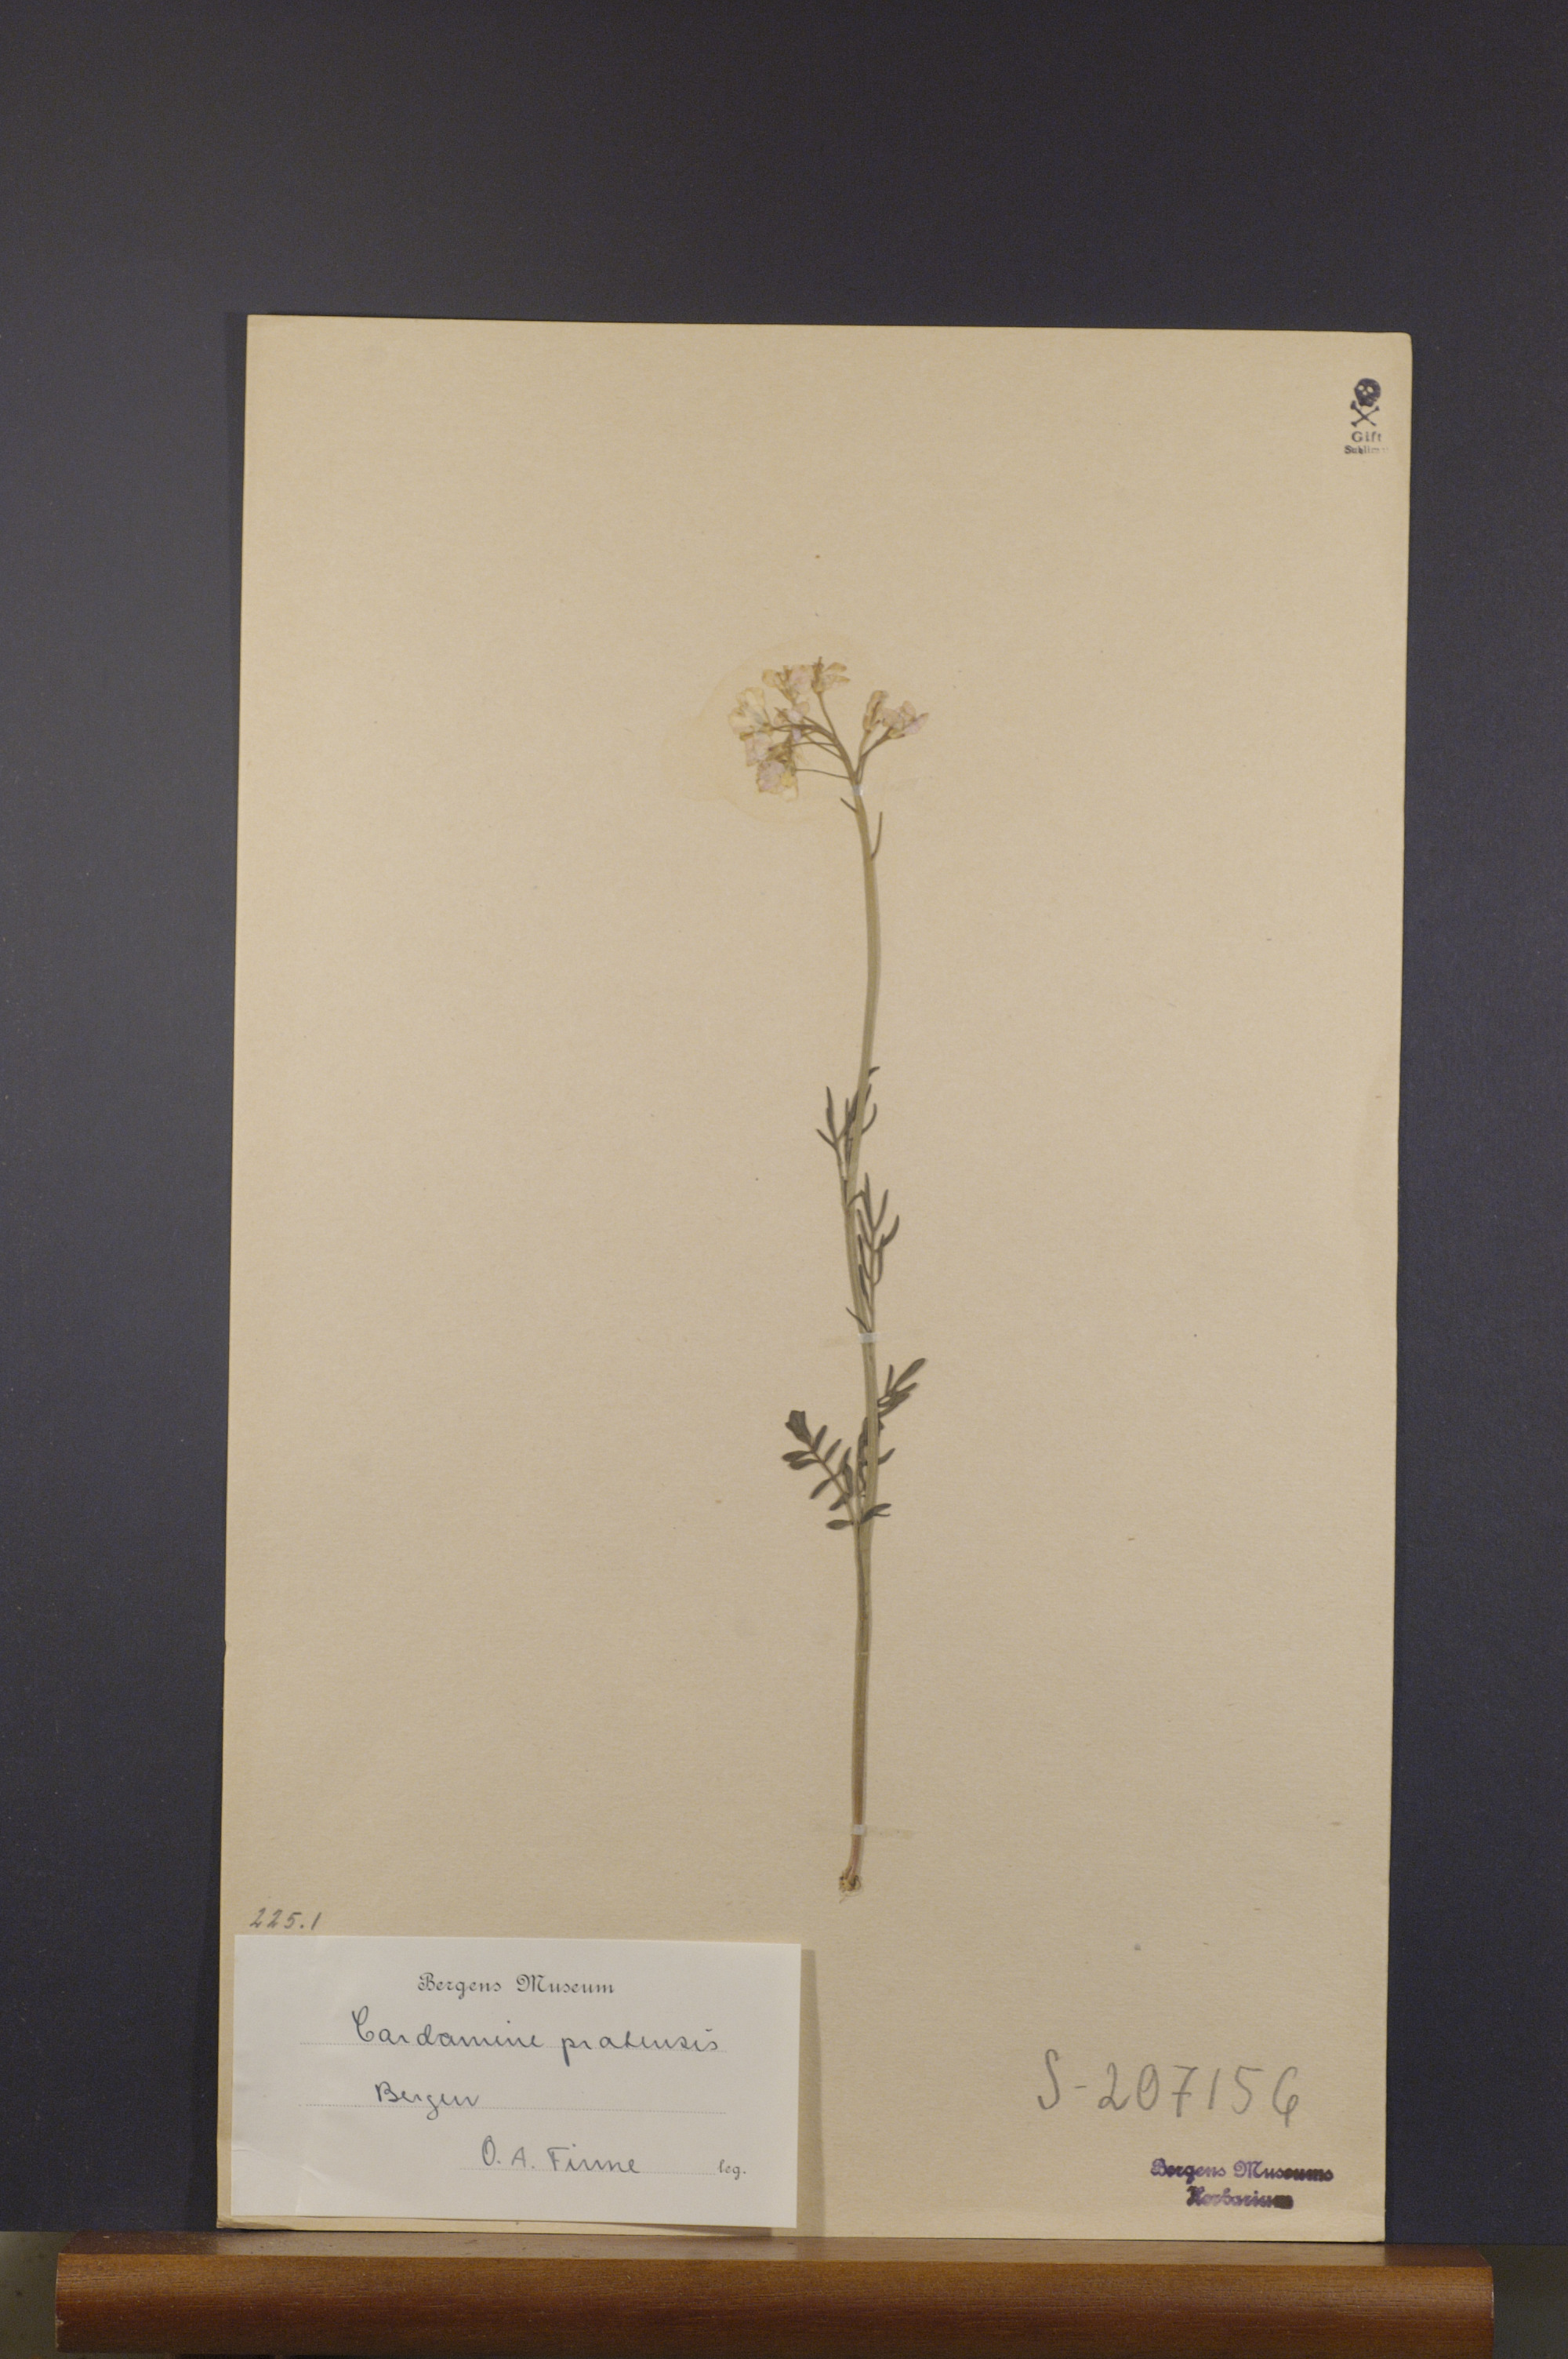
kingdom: Plantae
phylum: Tracheophyta
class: Magnoliopsida
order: Brassicales
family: Brassicaceae
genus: Cardamine
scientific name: Cardamine pratensis
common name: Cuckoo flower
